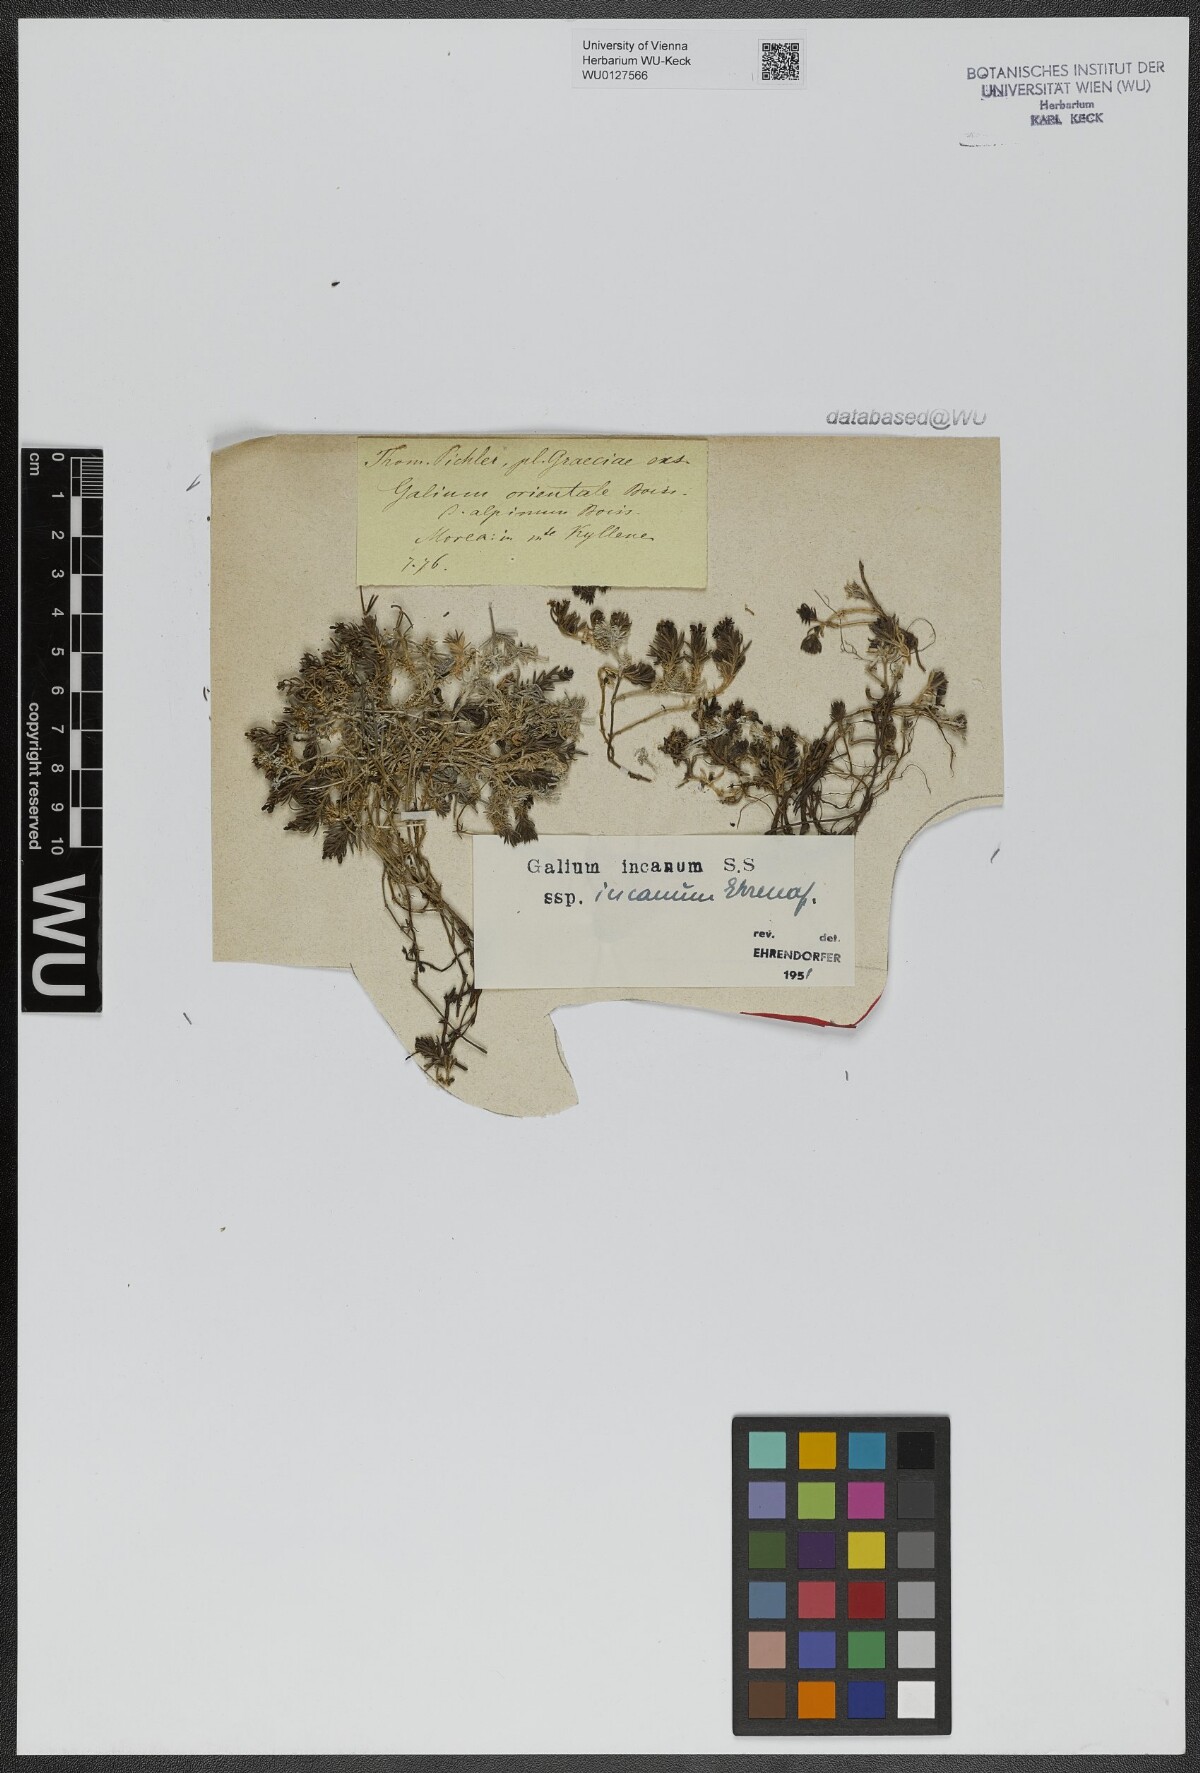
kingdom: Plantae
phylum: Tracheophyta
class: Magnoliopsida
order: Gentianales
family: Rubiaceae
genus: Galium
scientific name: Galium incanum
